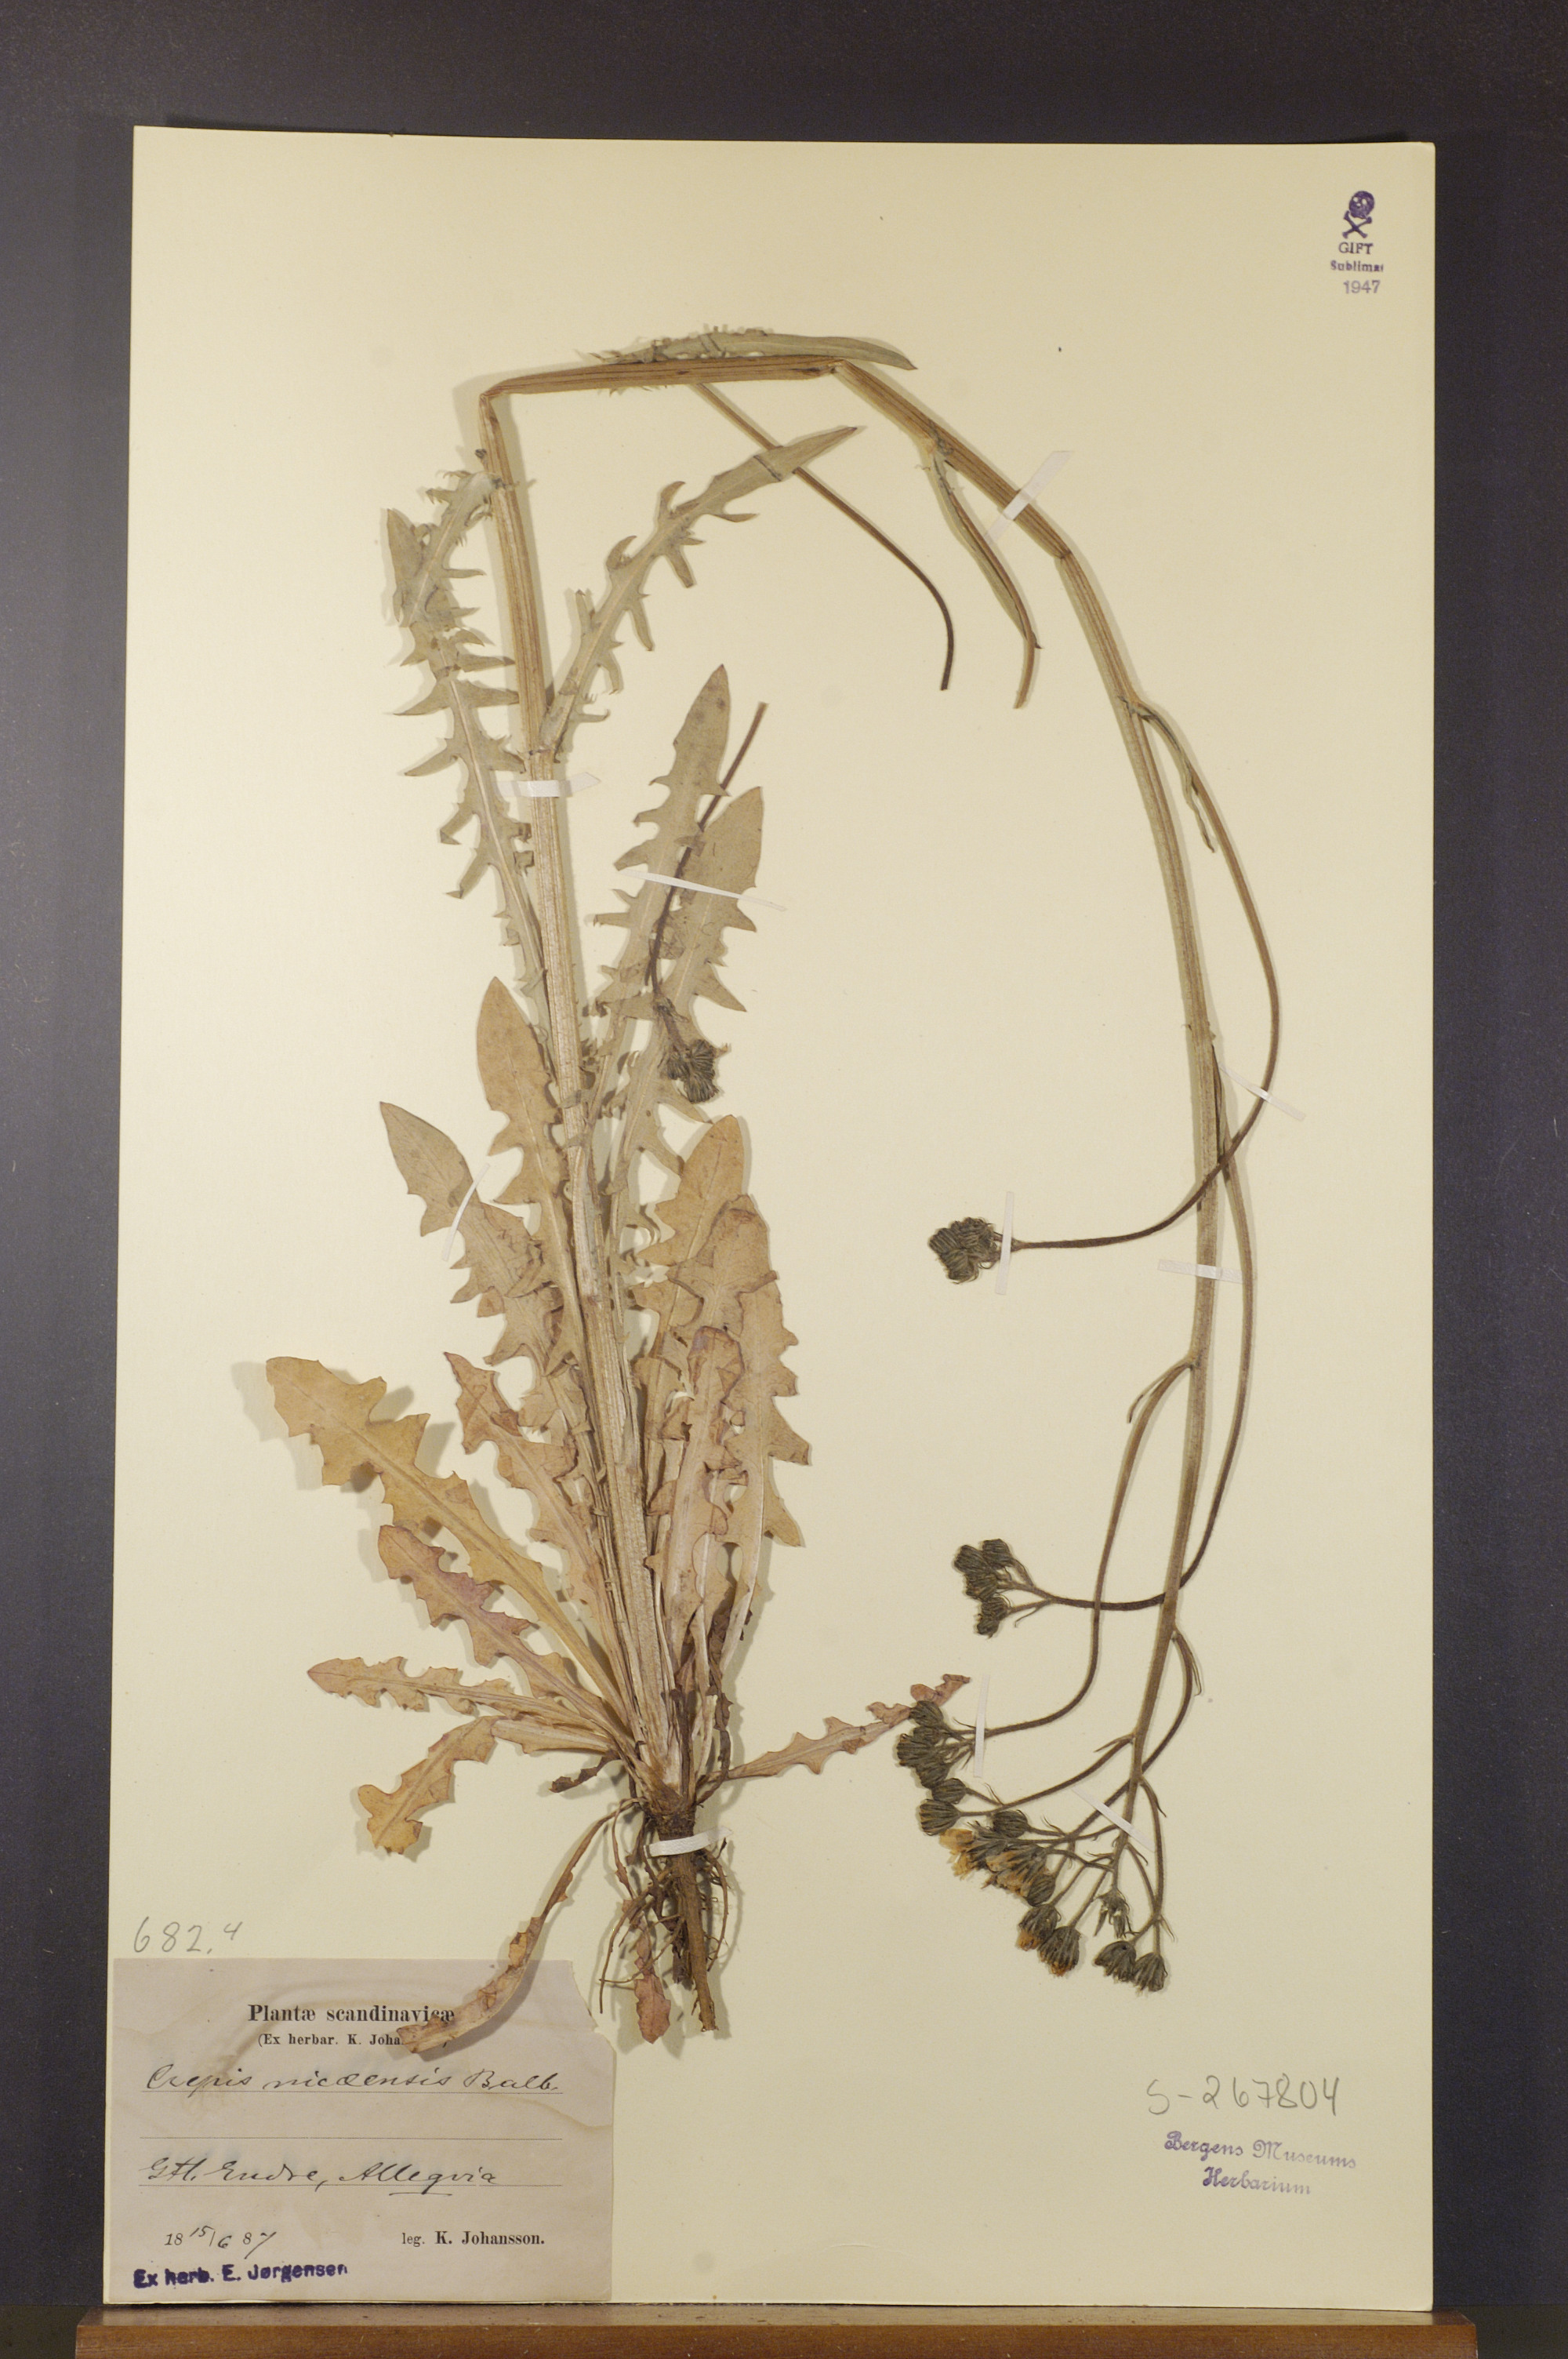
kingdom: Plantae
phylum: Tracheophyta
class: Magnoliopsida
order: Asterales
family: Asteraceae
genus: Crepis
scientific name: Crepis nicaeensis
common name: Turkish hawksbeard
